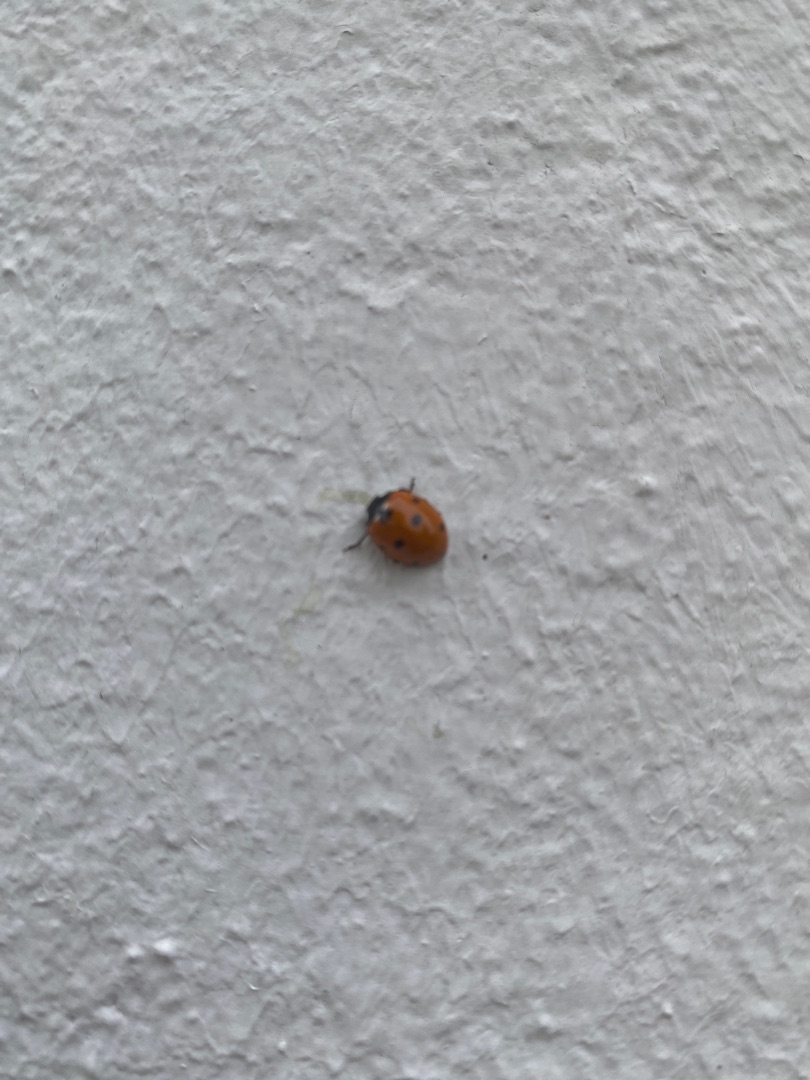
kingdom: Animalia
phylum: Arthropoda
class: Insecta
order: Coleoptera
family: Coccinellidae
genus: Coccinella
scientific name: Coccinella septempunctata
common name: Syvplettet mariehøne
